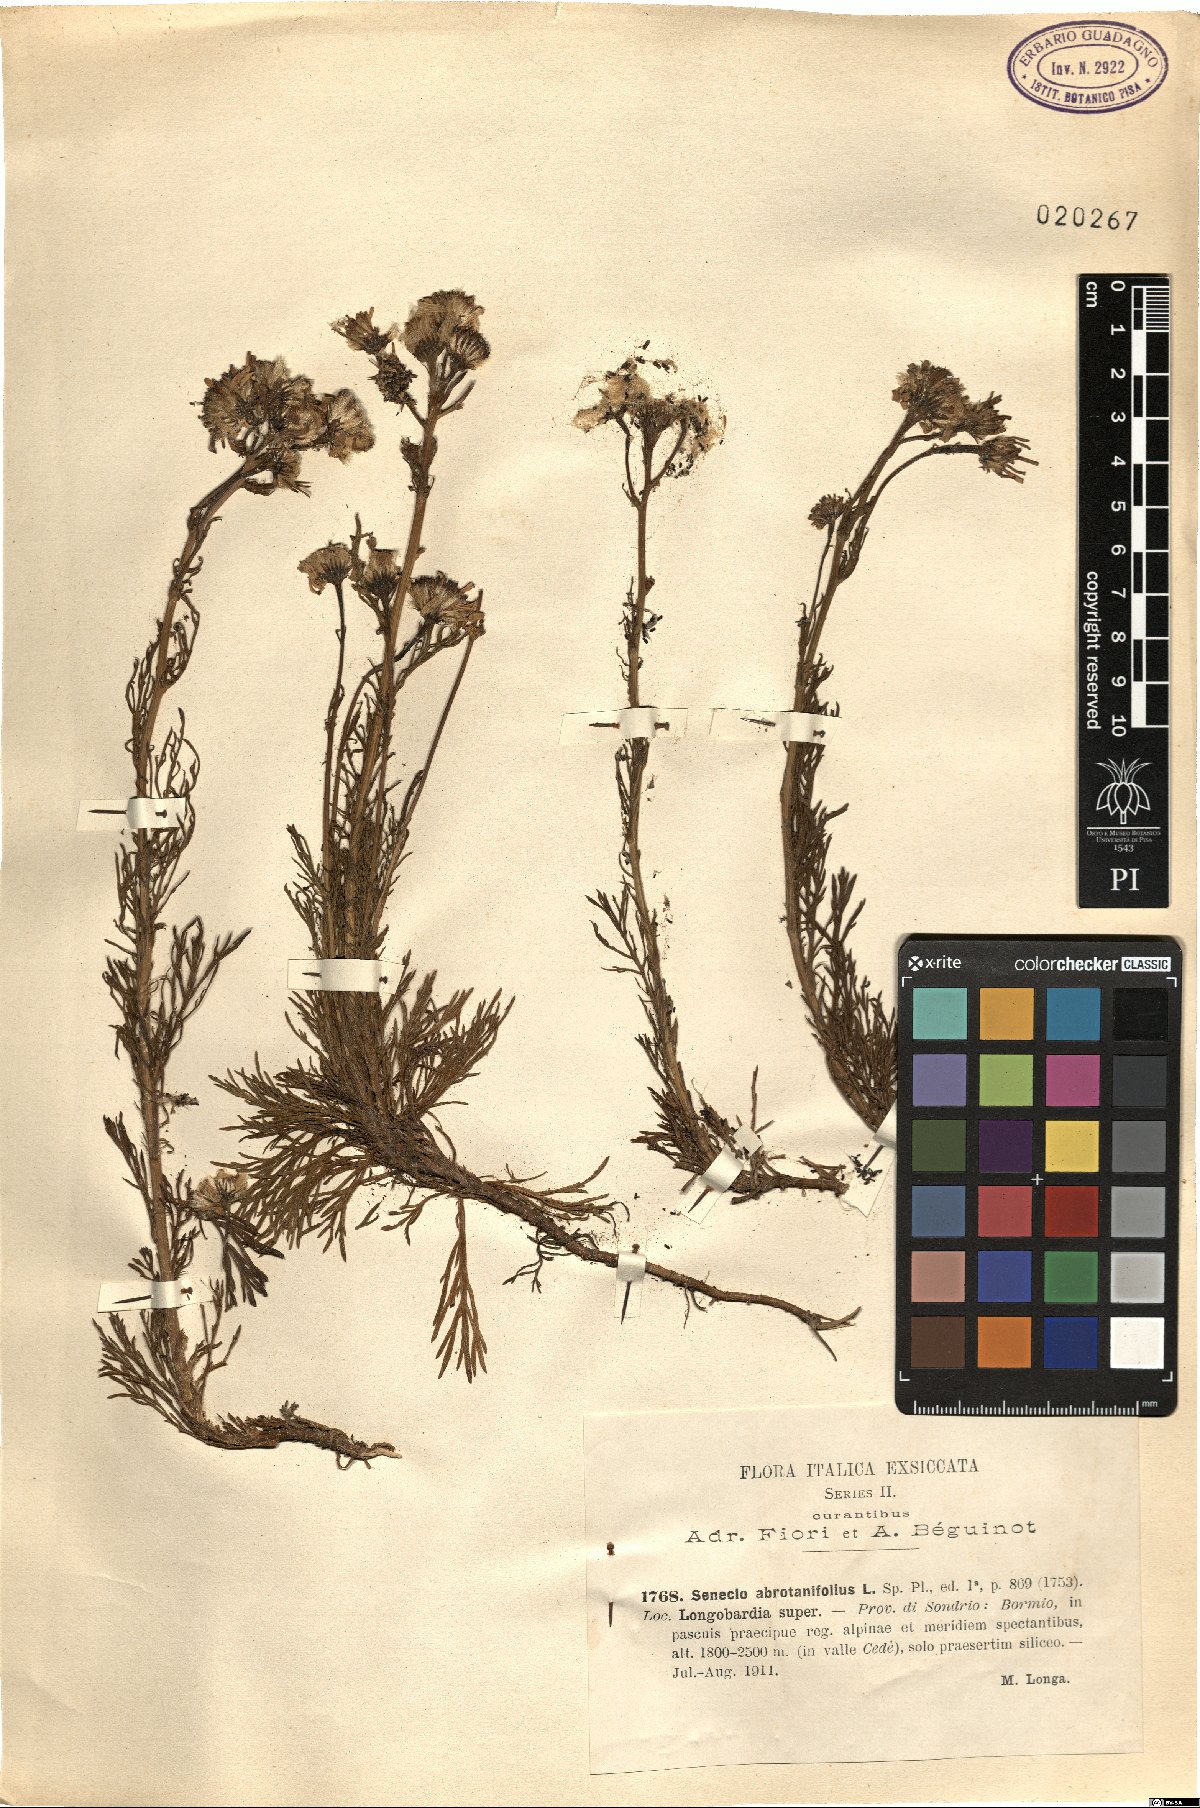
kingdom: Plantae
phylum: Tracheophyta
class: Magnoliopsida
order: Asterales
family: Asteraceae
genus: Jacobaea
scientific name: Jacobaea abrotanifolia
